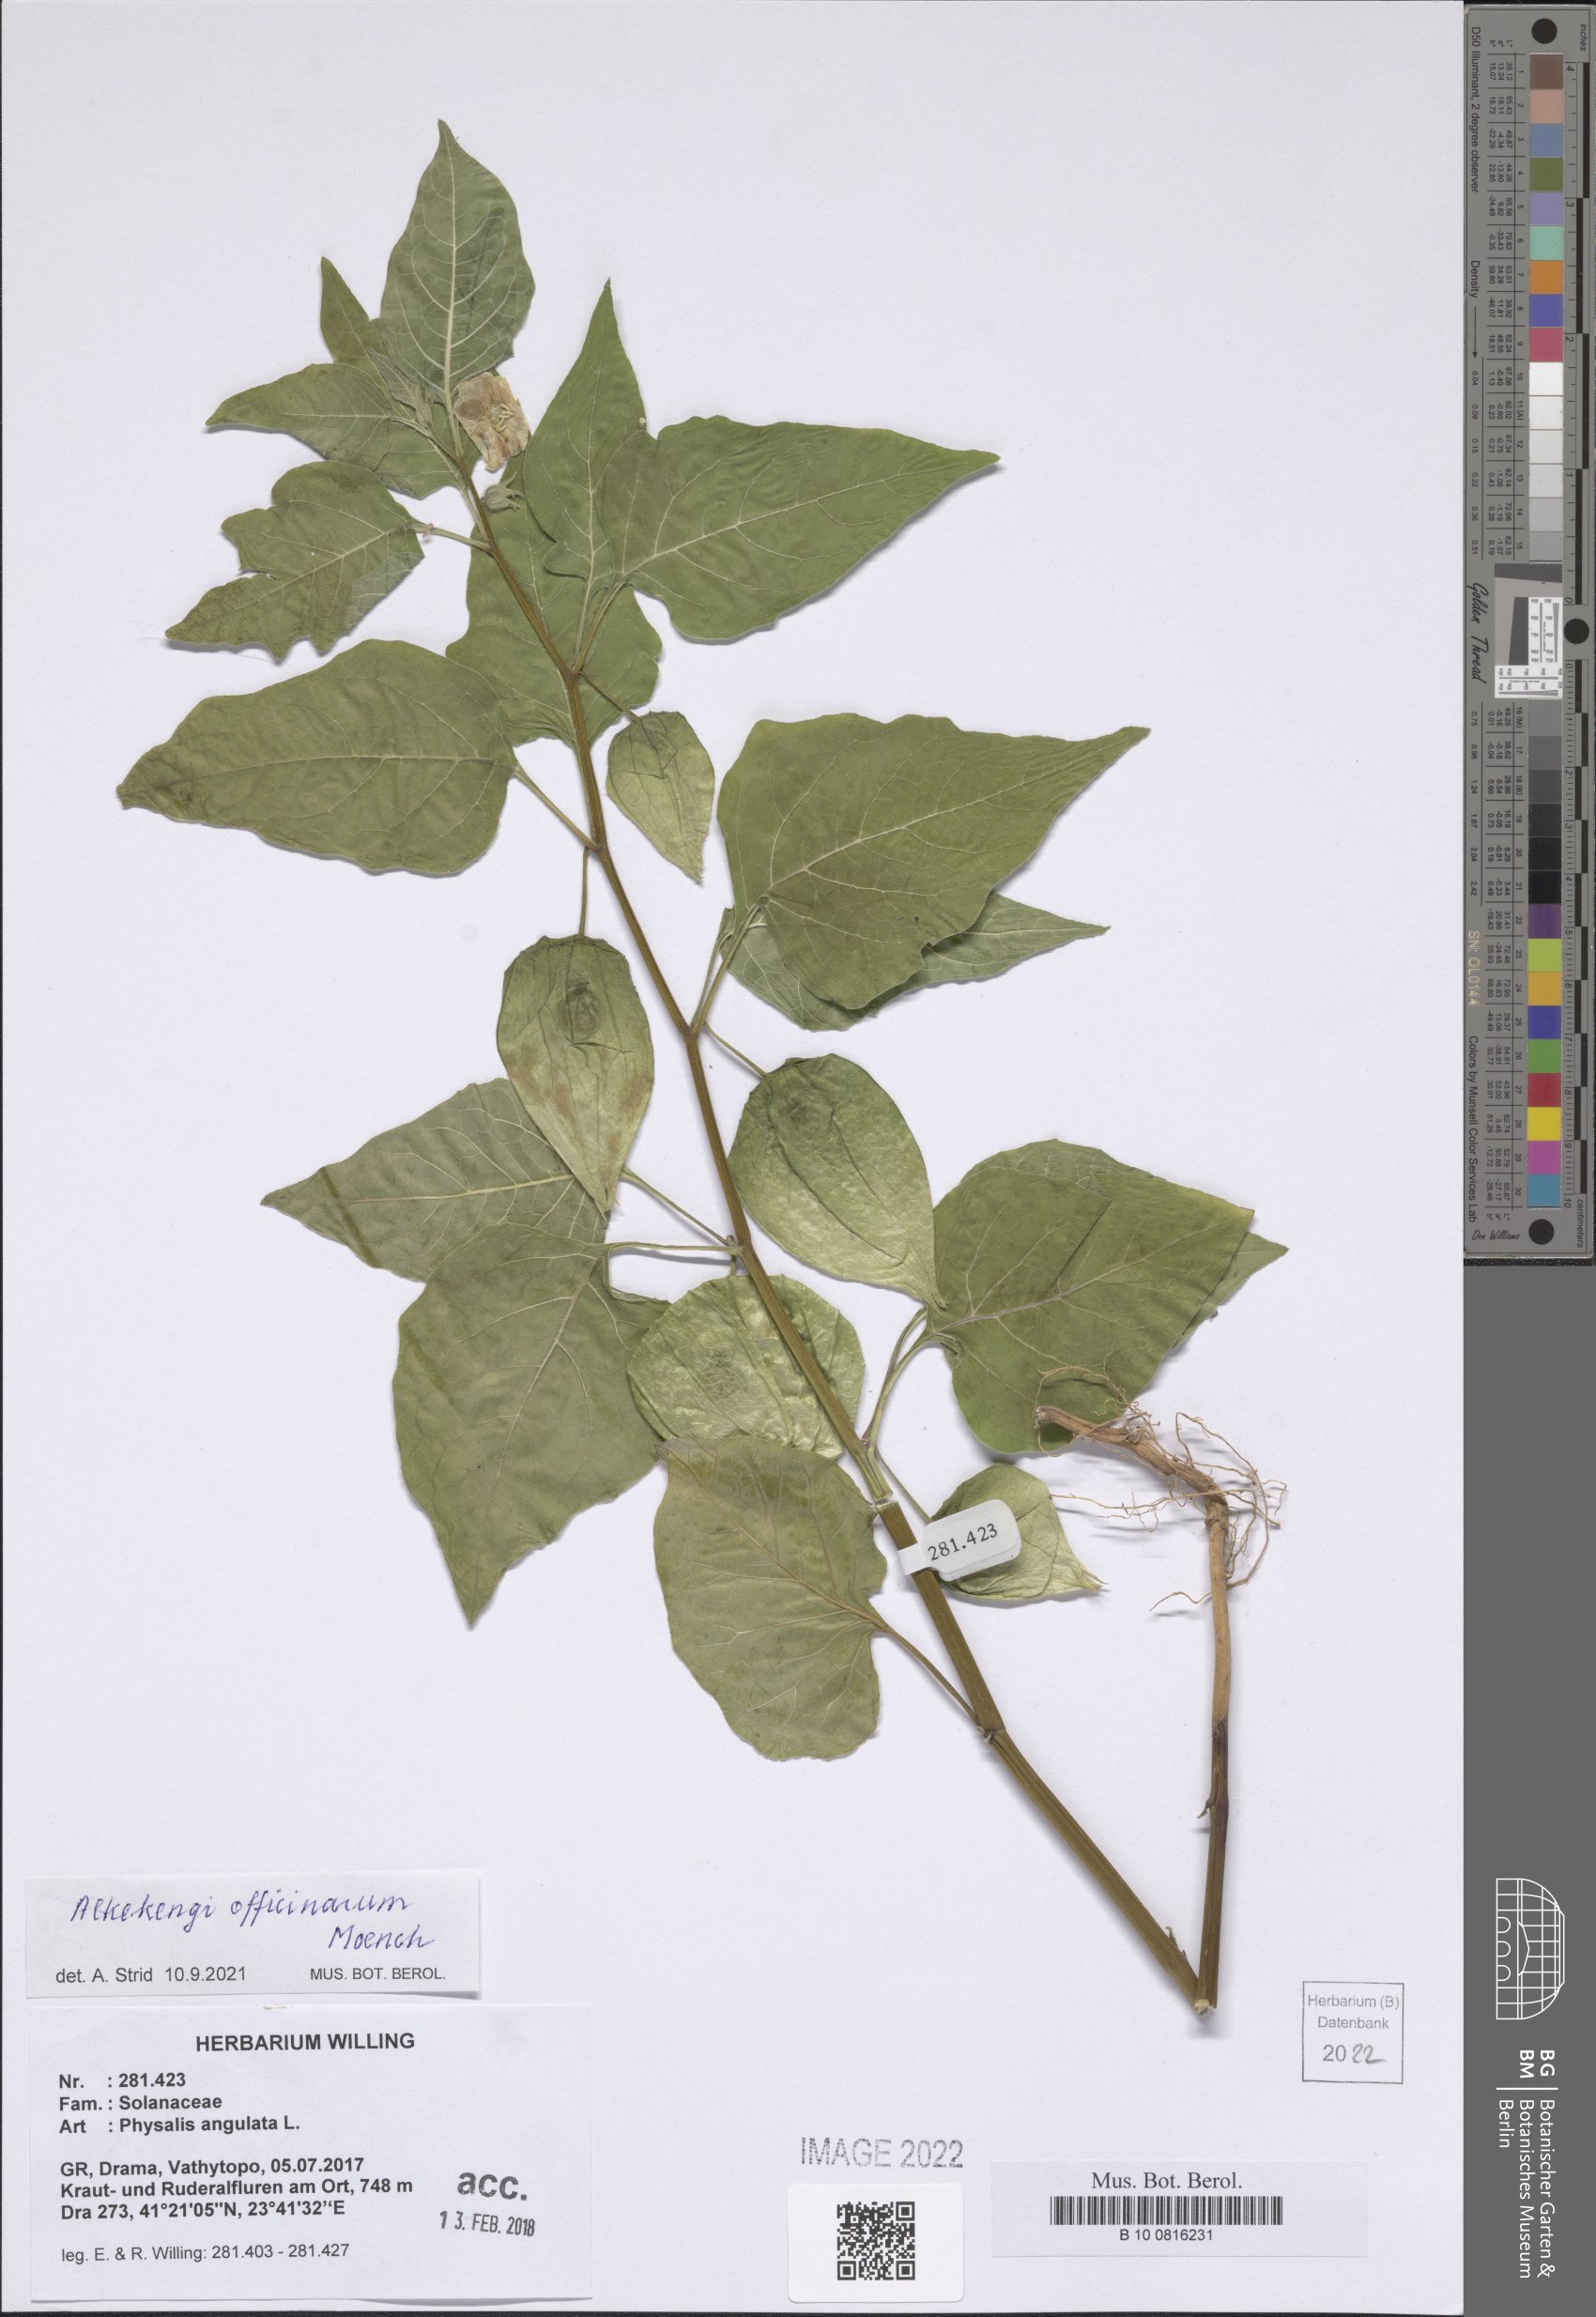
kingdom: Plantae
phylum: Tracheophyta
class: Magnoliopsida
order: Solanales
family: Solanaceae
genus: Alkekengi
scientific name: Alkekengi officinarum
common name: Japanese-lantern
